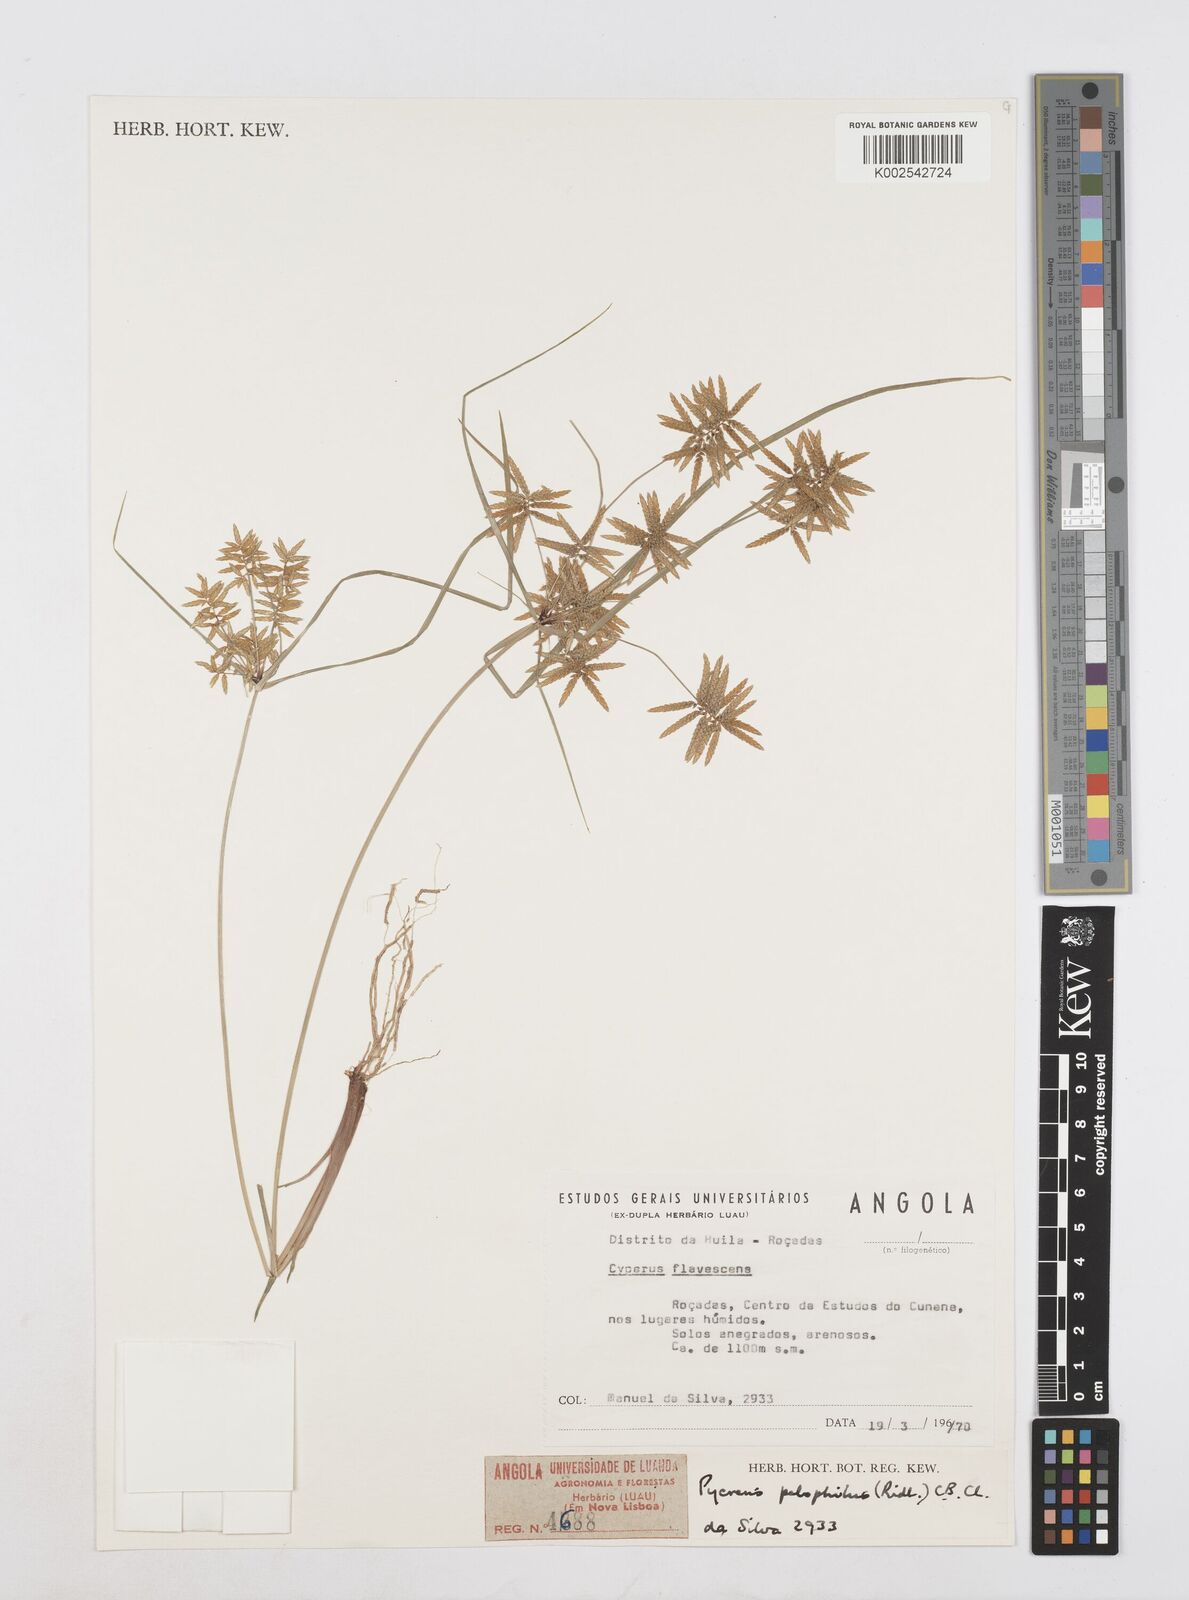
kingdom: Plantae
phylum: Tracheophyta
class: Liliopsida
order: Poales
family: Cyperaceae
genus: Cyperus
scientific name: Cyperus pelophilus
